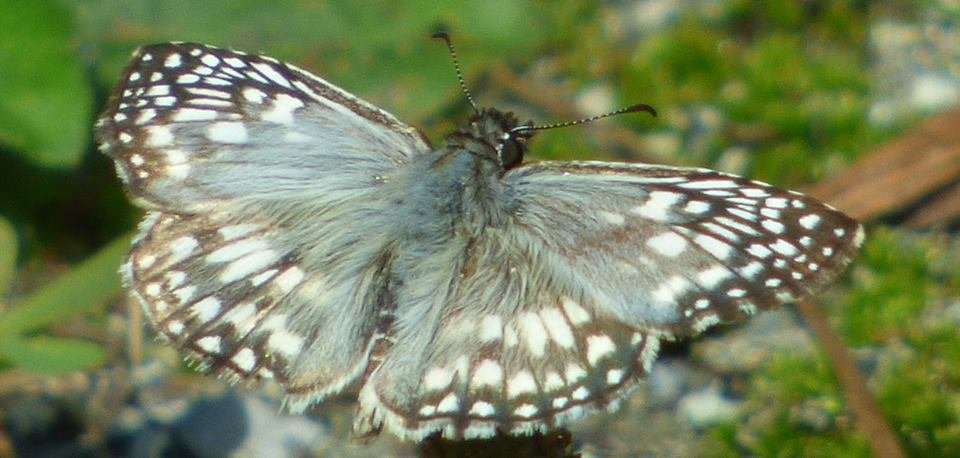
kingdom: Animalia
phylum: Arthropoda
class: Insecta
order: Lepidoptera
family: Hesperiidae
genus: Pyrgus
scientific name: Pyrgus oileus
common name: Tropical Checkered-Skipper
